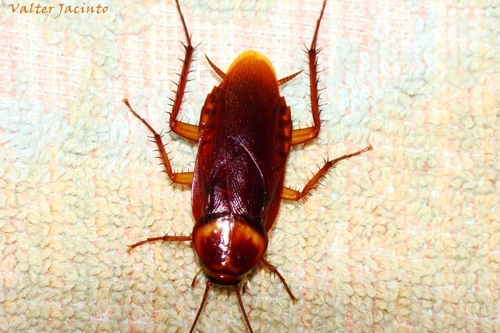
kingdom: Animalia
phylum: Arthropoda
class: Insecta
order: Blattodea
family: Blattidae
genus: Periplaneta
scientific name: Periplaneta americana
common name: American cockroach
